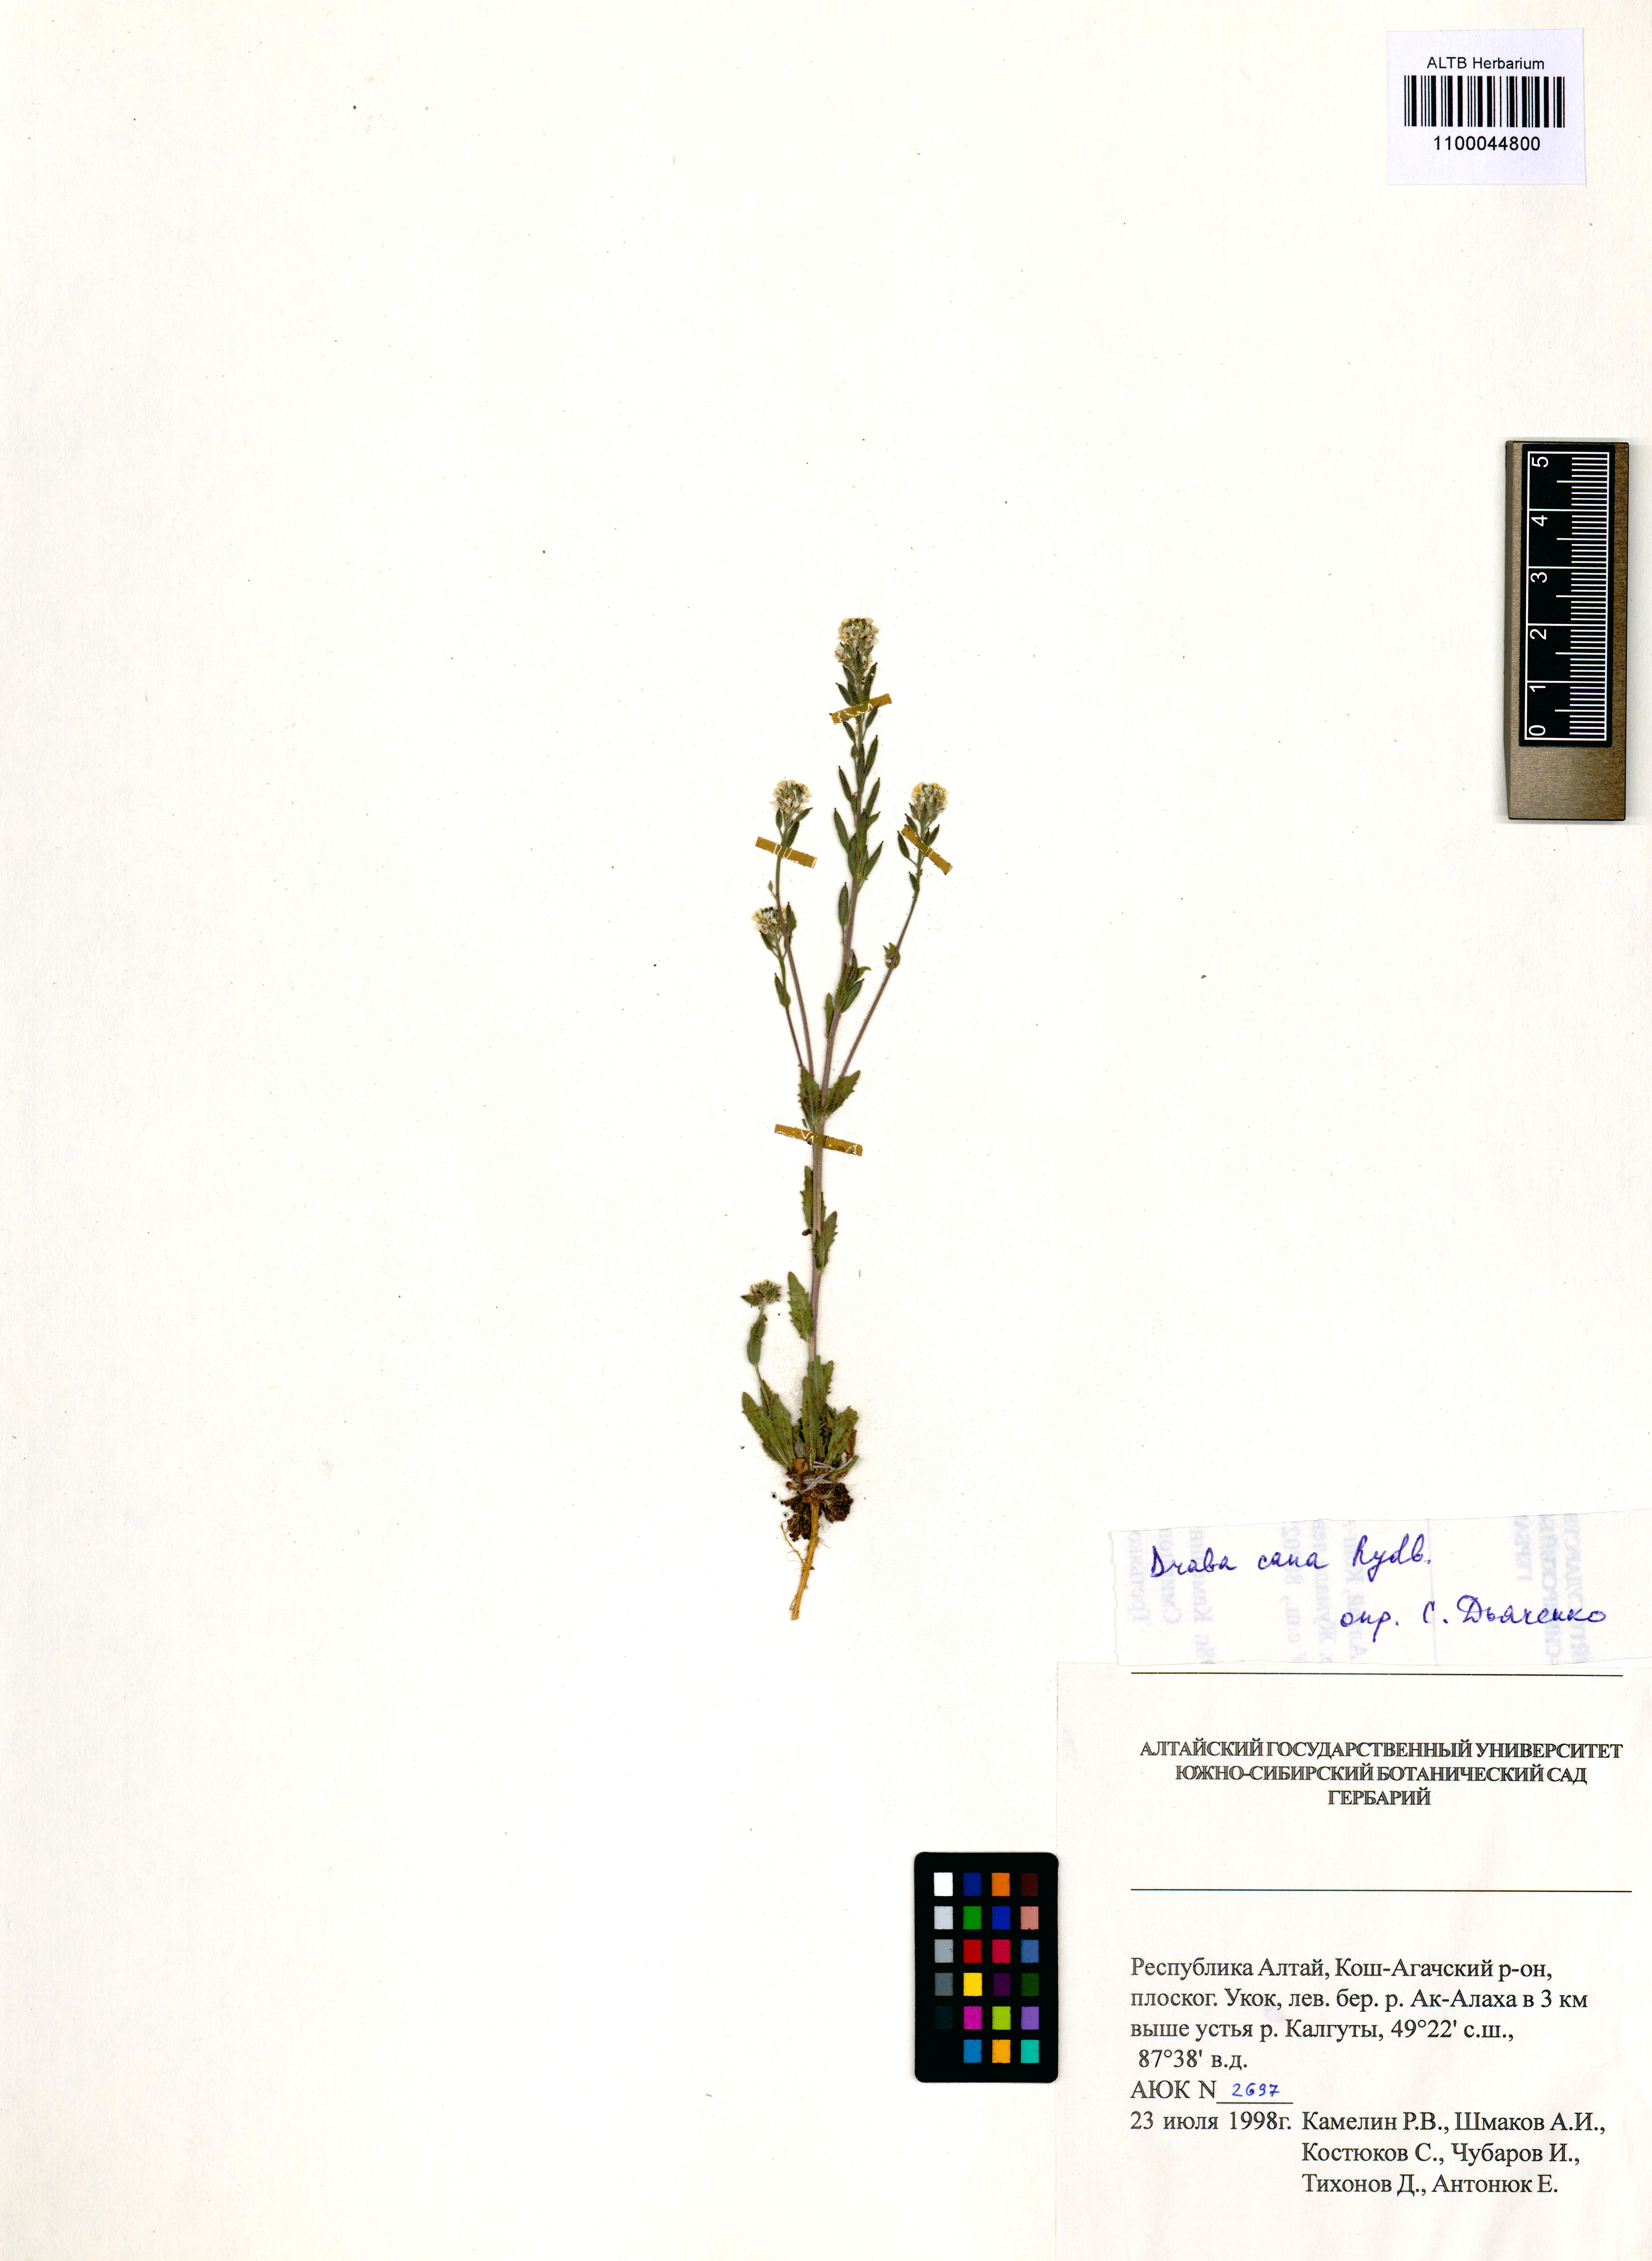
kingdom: Plantae
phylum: Tracheophyta
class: Magnoliopsida
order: Brassicales
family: Brassicaceae
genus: Draba
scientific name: Draba cana
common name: Hoary draba
